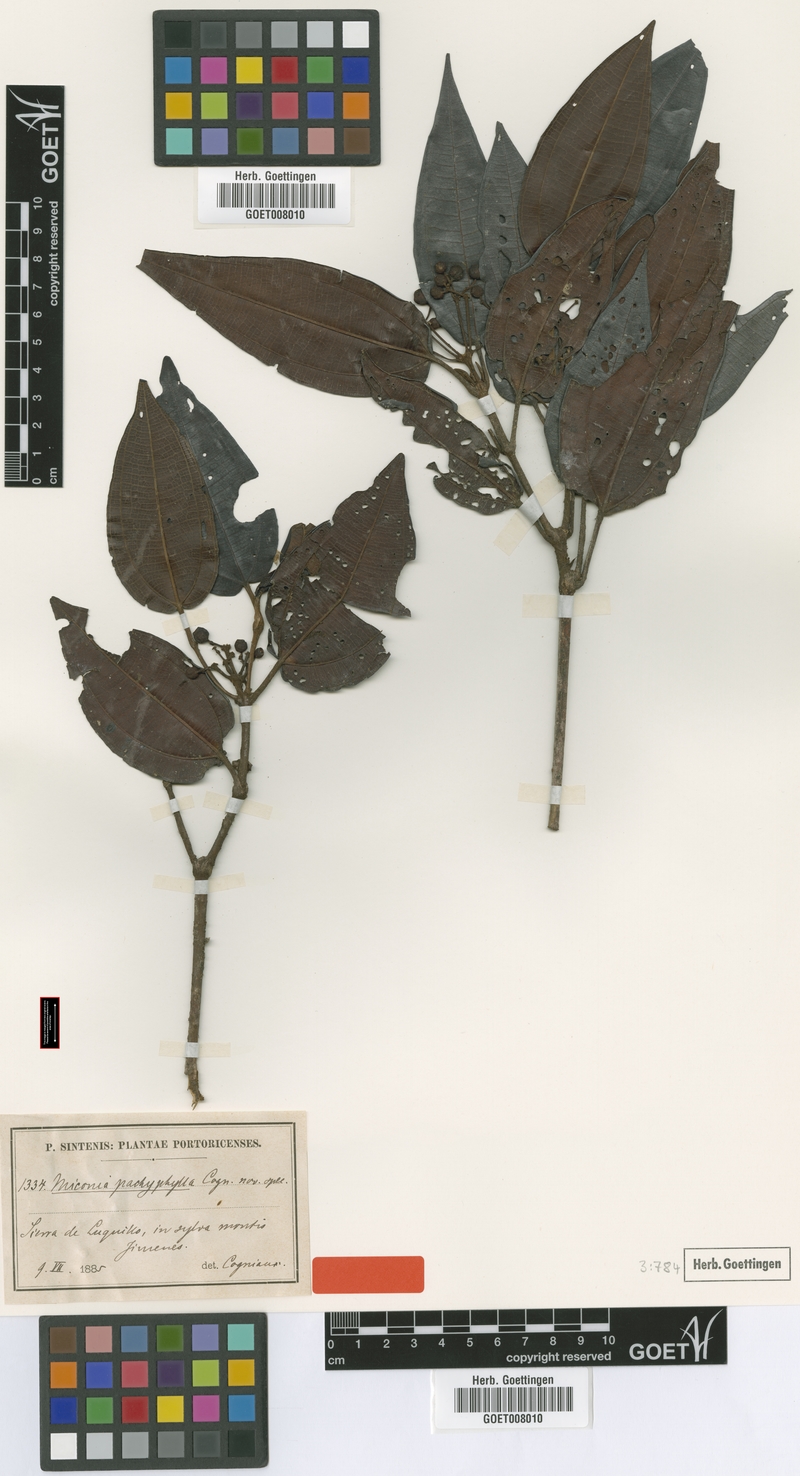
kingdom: Plantae
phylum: Tracheophyta
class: Magnoliopsida
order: Myrtales
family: Melastomataceae
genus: Miconia
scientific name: Miconia pachyphylla
